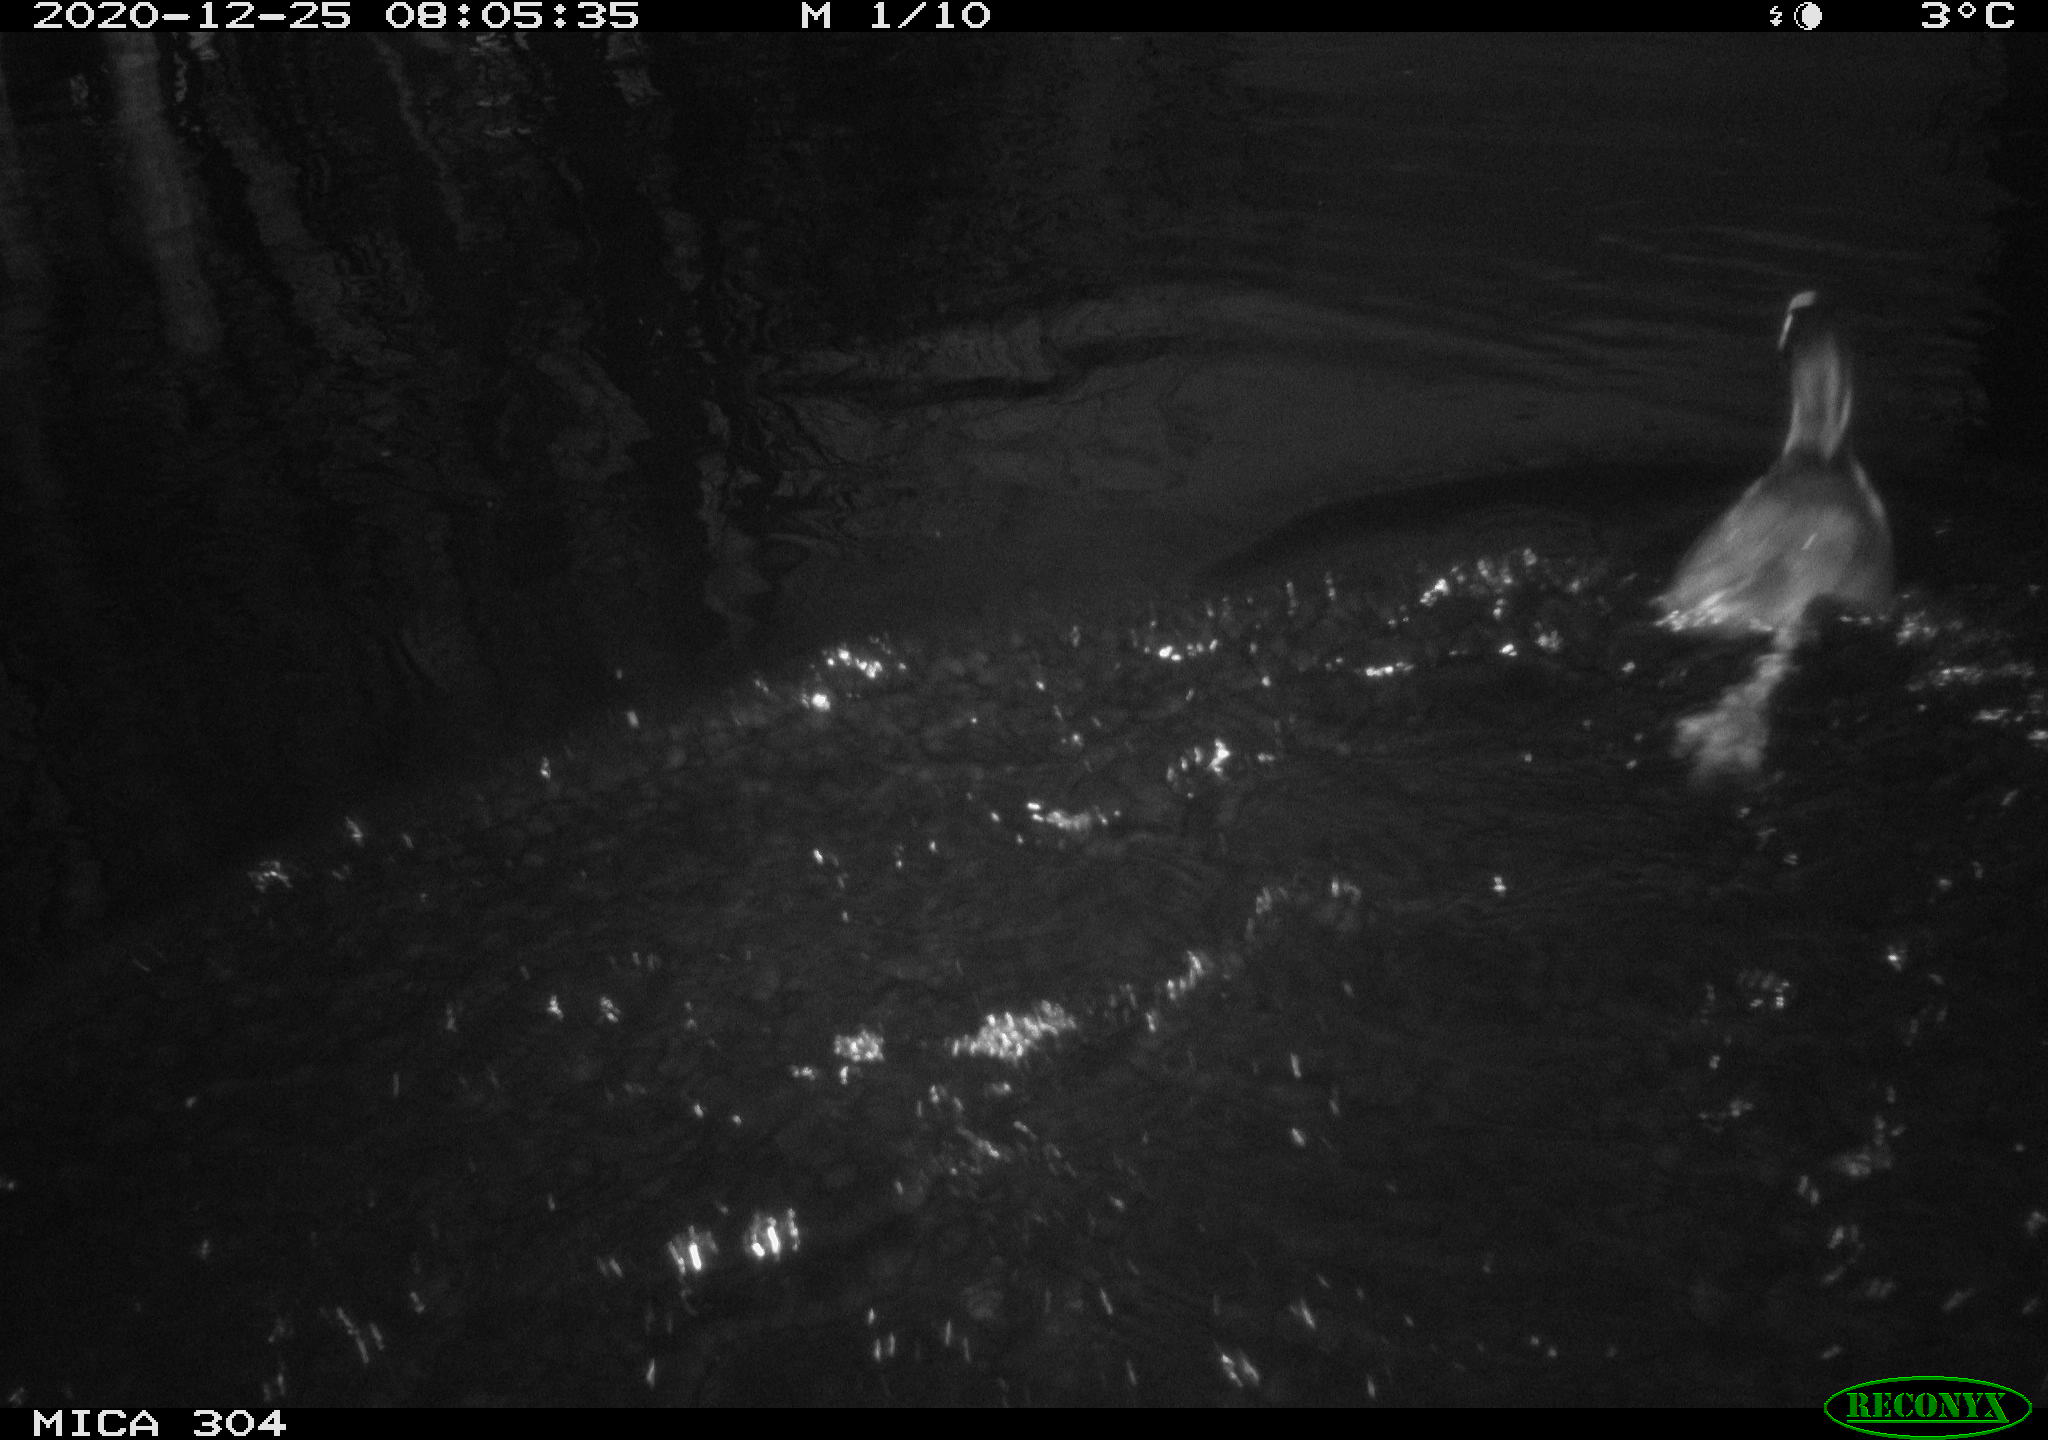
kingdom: Animalia
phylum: Chordata
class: Aves
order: Gruiformes
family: Rallidae
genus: Gallinula
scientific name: Gallinula chloropus
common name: Common moorhen
